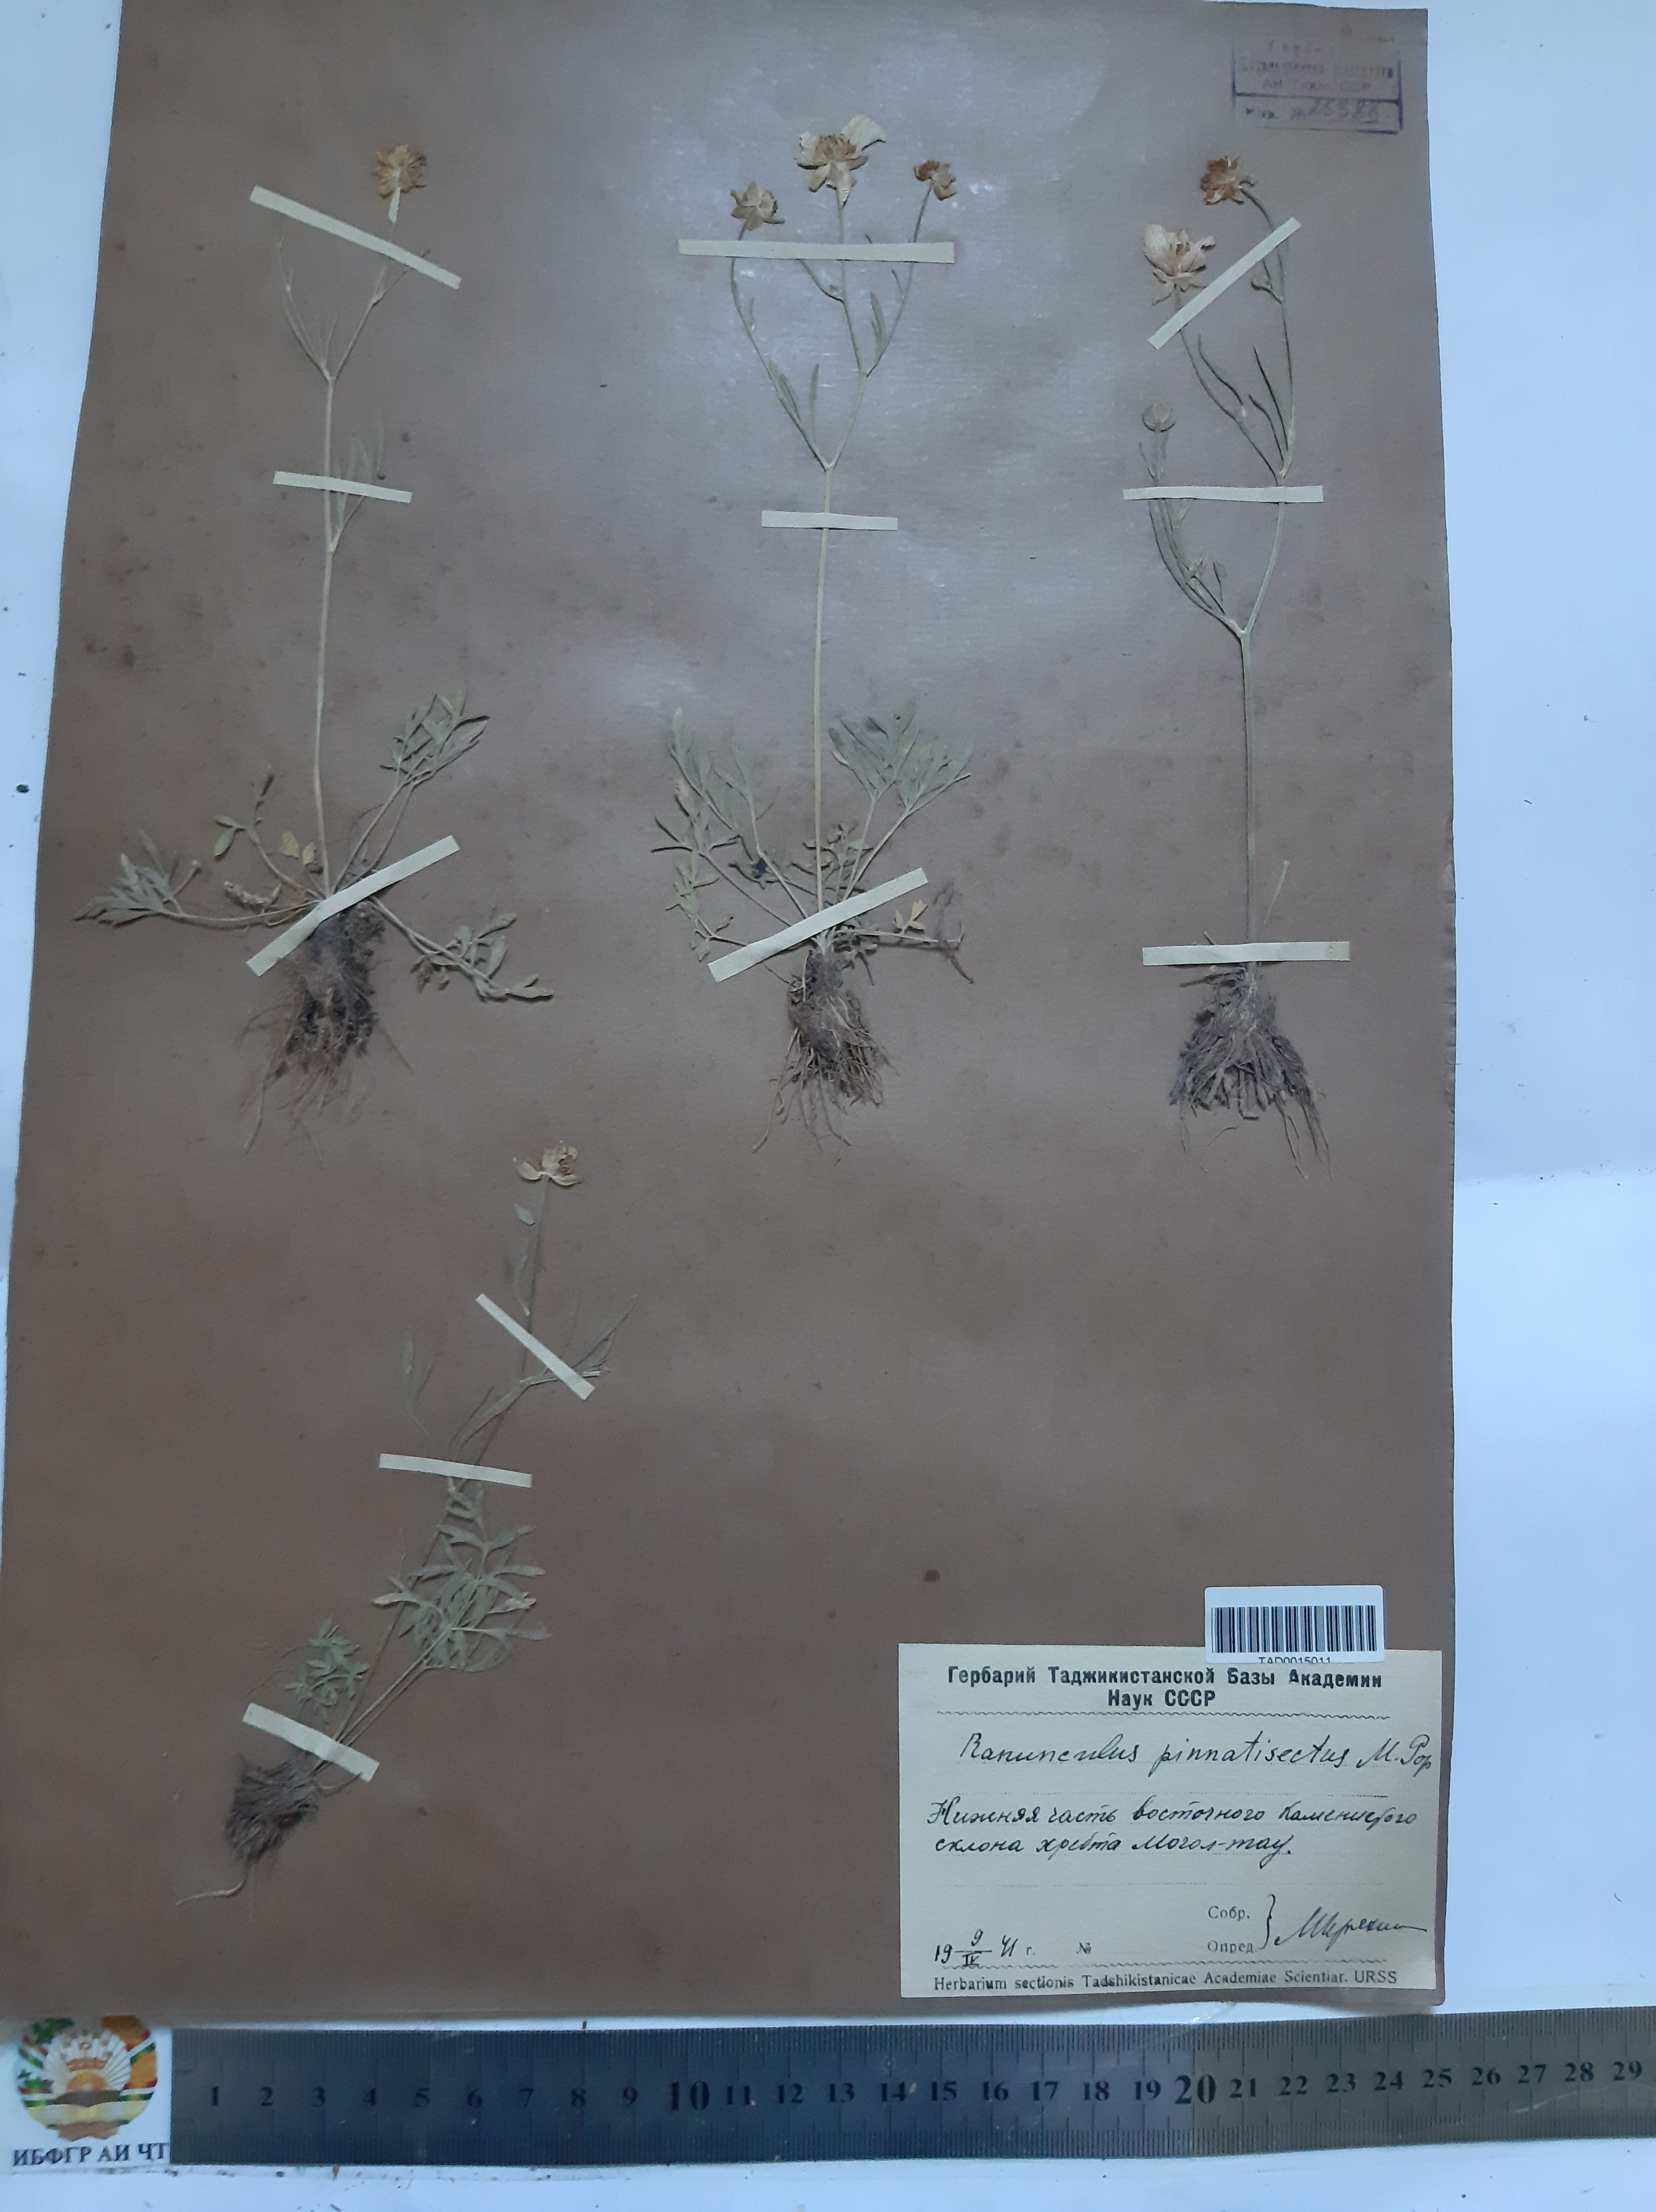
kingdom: Plantae
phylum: Tracheophyta
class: Magnoliopsida
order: Ranunculales
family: Ranunculaceae
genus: Ranunculus
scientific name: Ranunculus pinnatisectus
